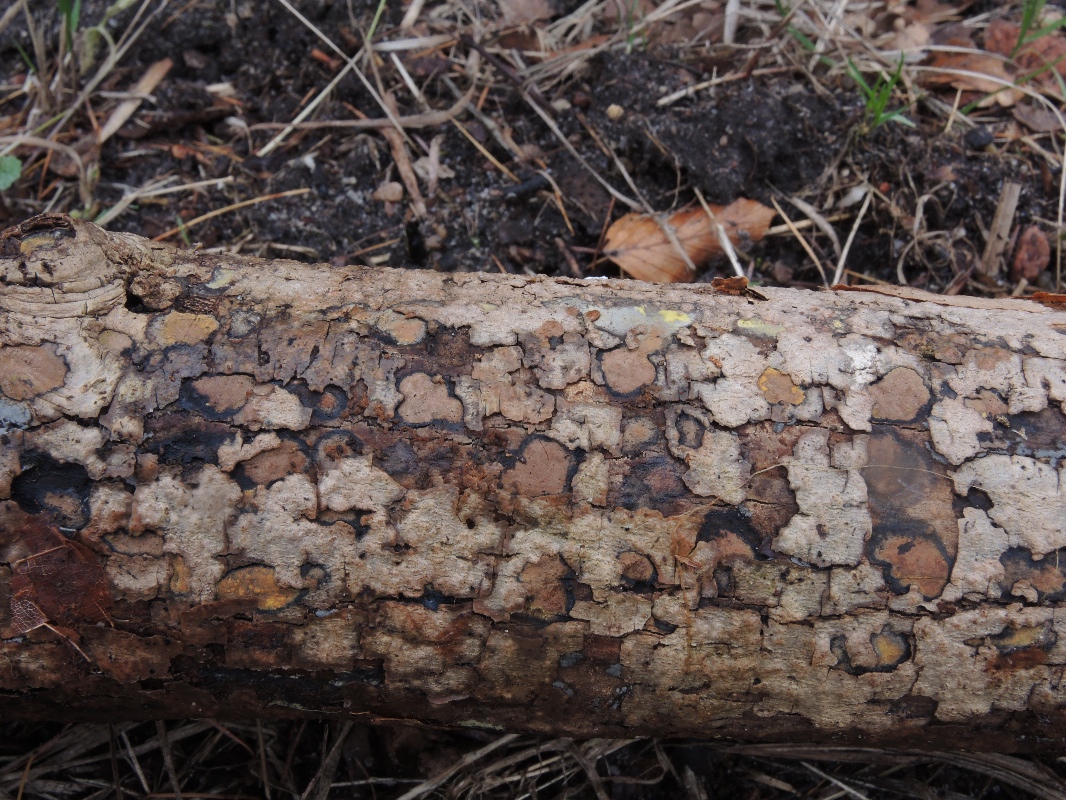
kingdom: Fungi
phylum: Ascomycota
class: Sordariomycetes
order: Xylariales
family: Hypoxylaceae
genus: Hypoxylon
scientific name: Hypoxylon petriniae
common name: nedsænket kulbær
